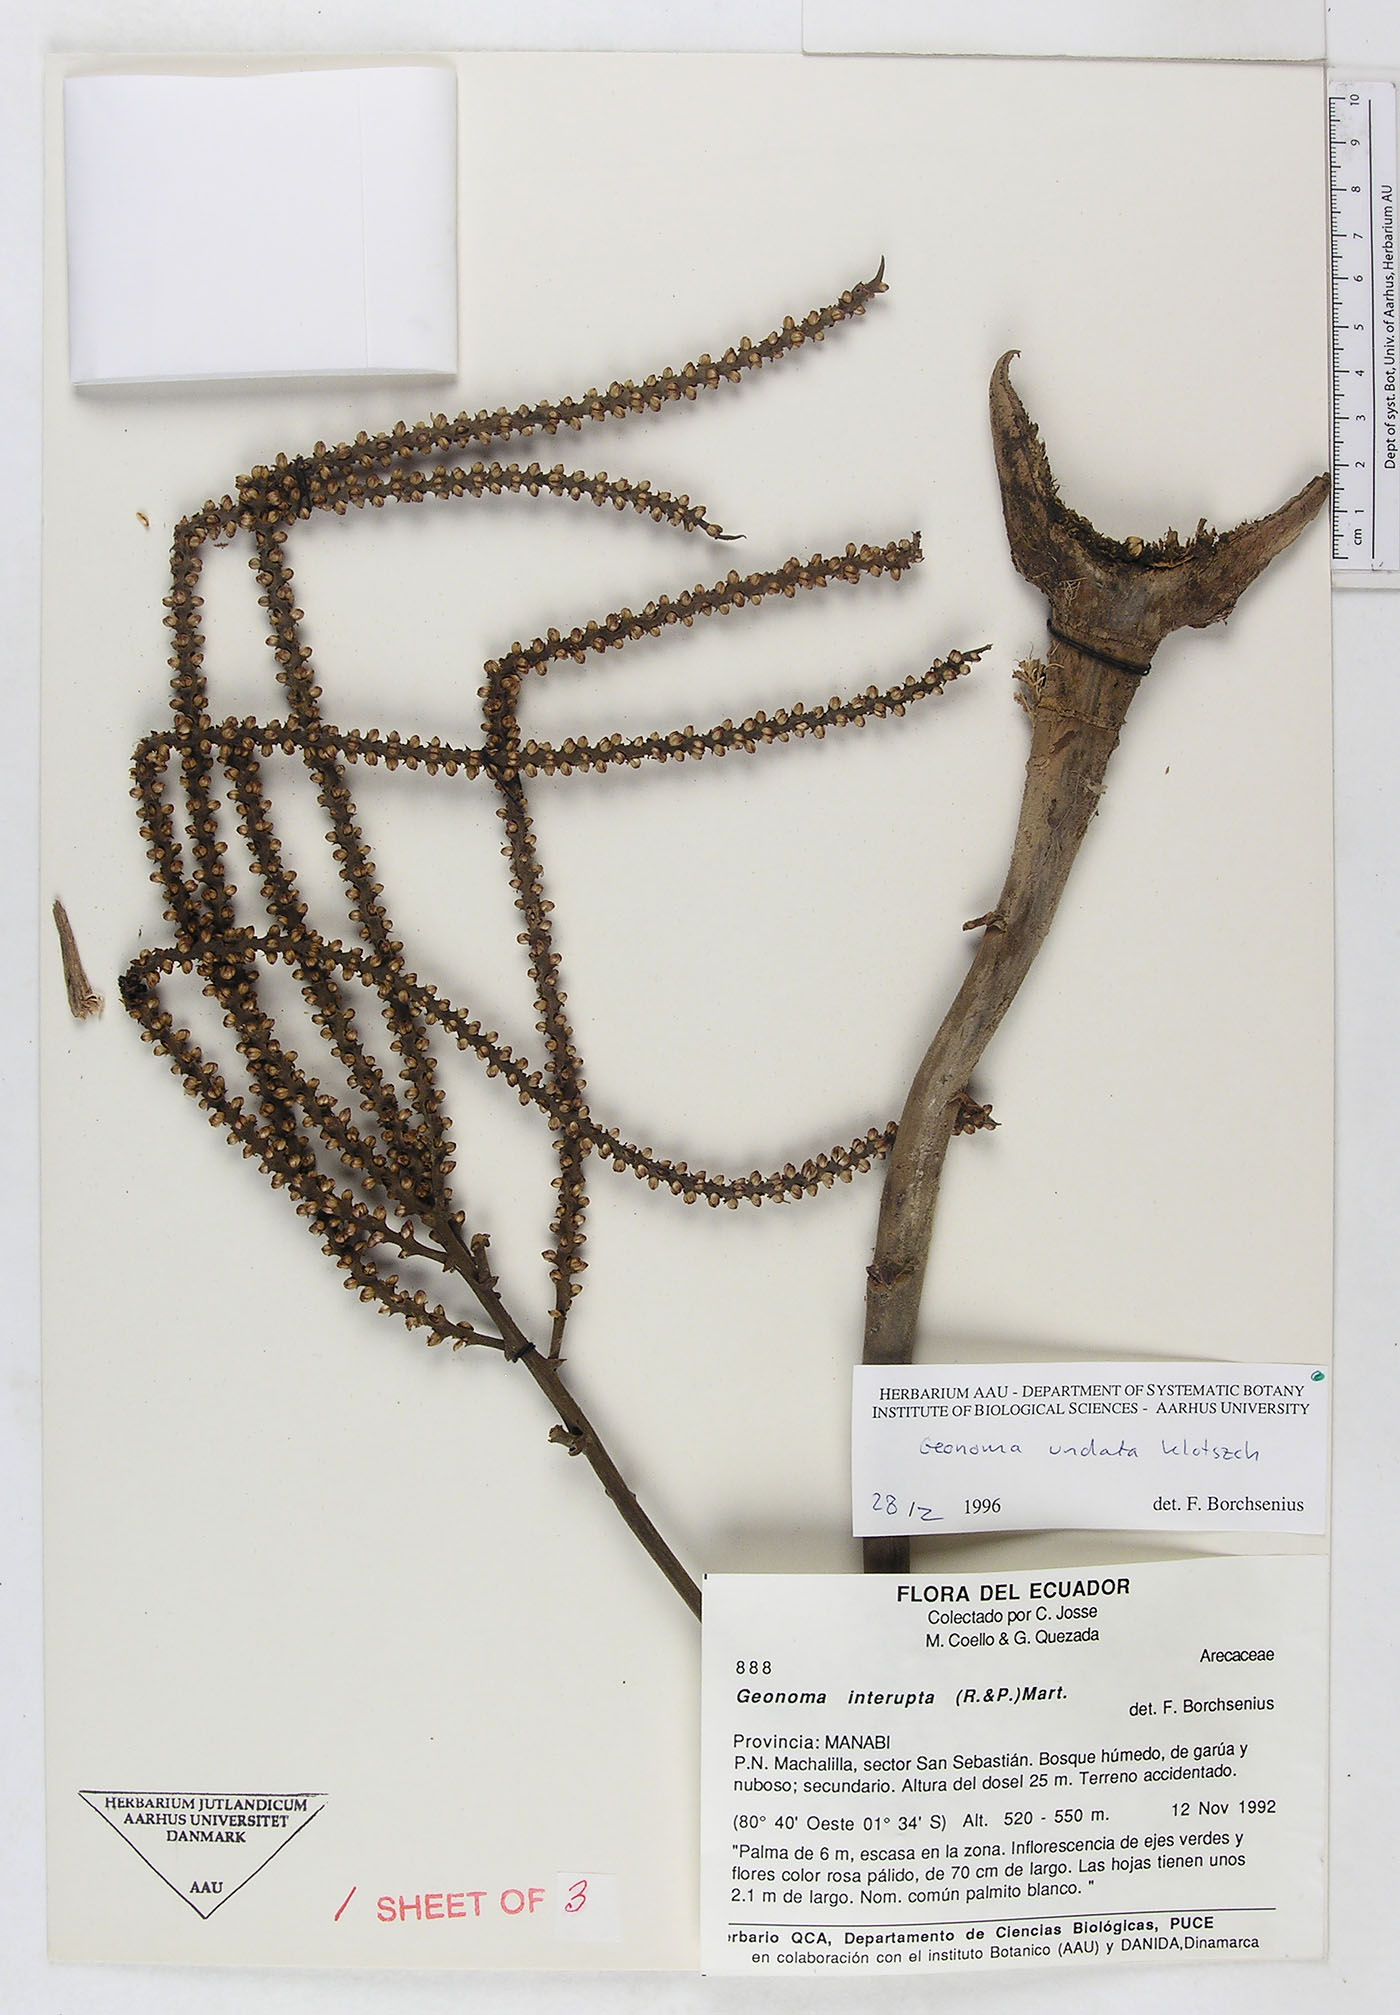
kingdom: Plantae
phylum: Tracheophyta
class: Liliopsida
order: Arecales
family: Arecaceae
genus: Geonoma
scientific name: Geonoma undata
